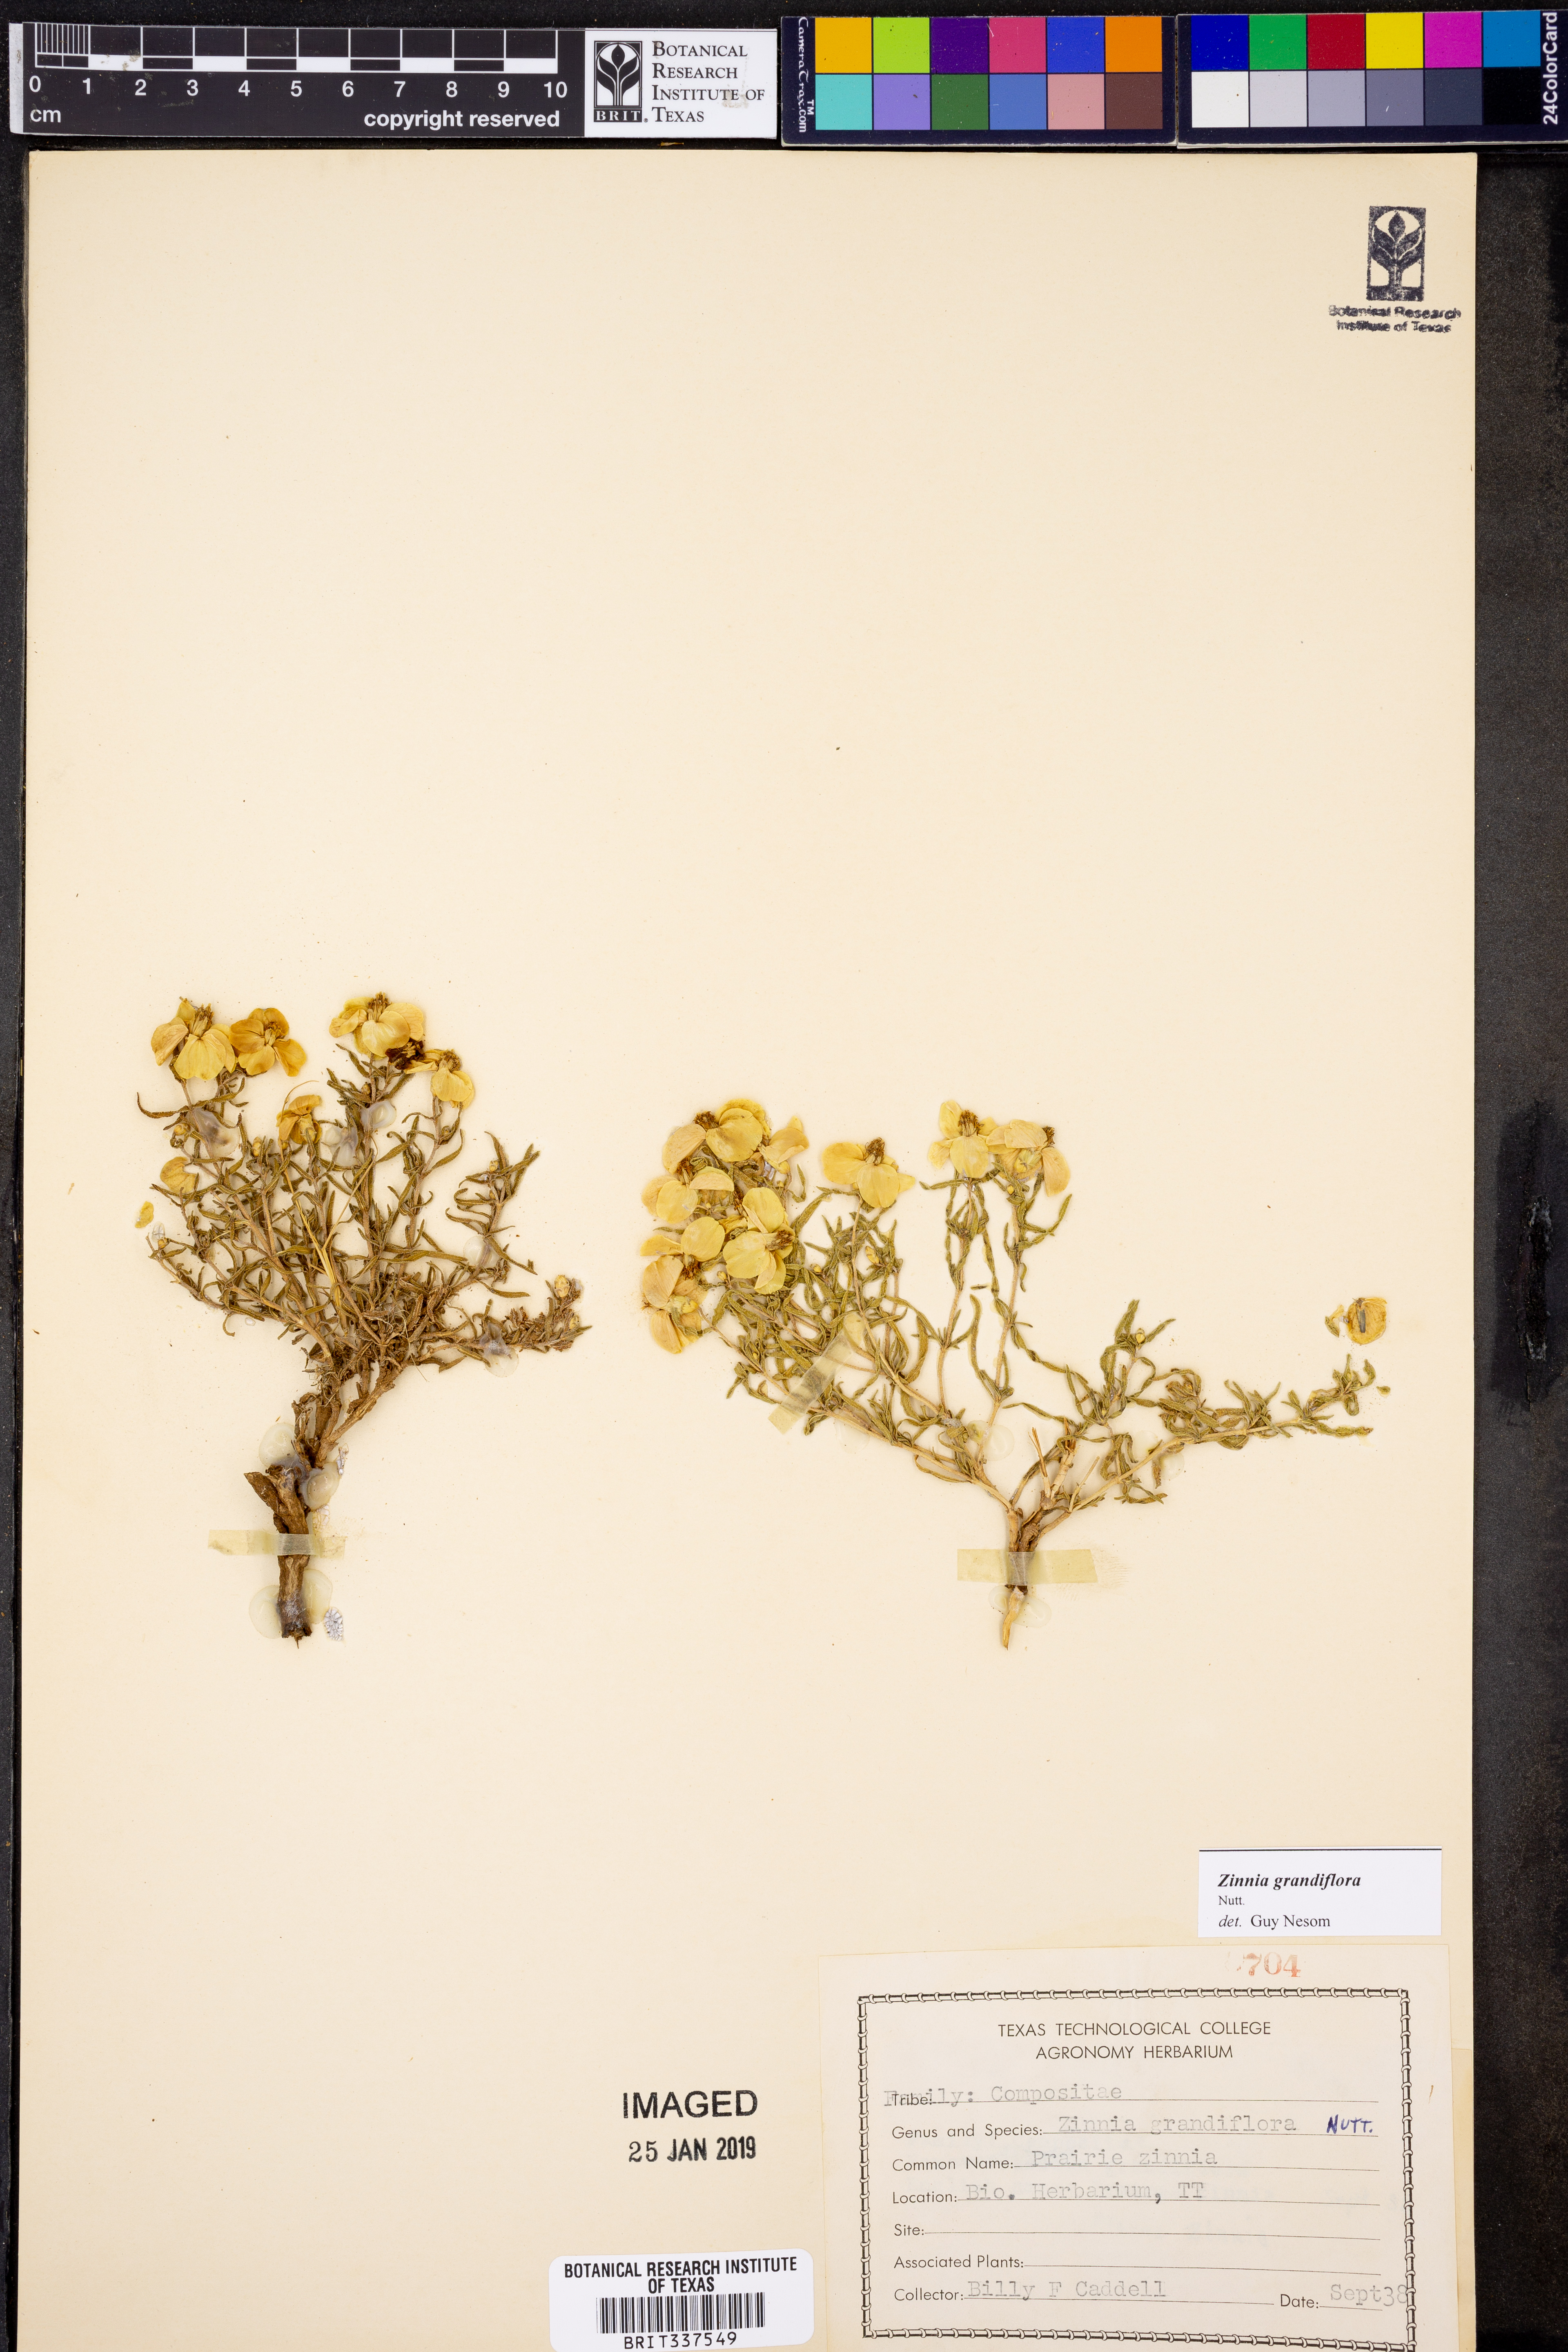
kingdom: Plantae
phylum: Tracheophyta
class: Magnoliopsida
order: Asterales
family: Asteraceae
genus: Zinnia
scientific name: Zinnia grandiflora
